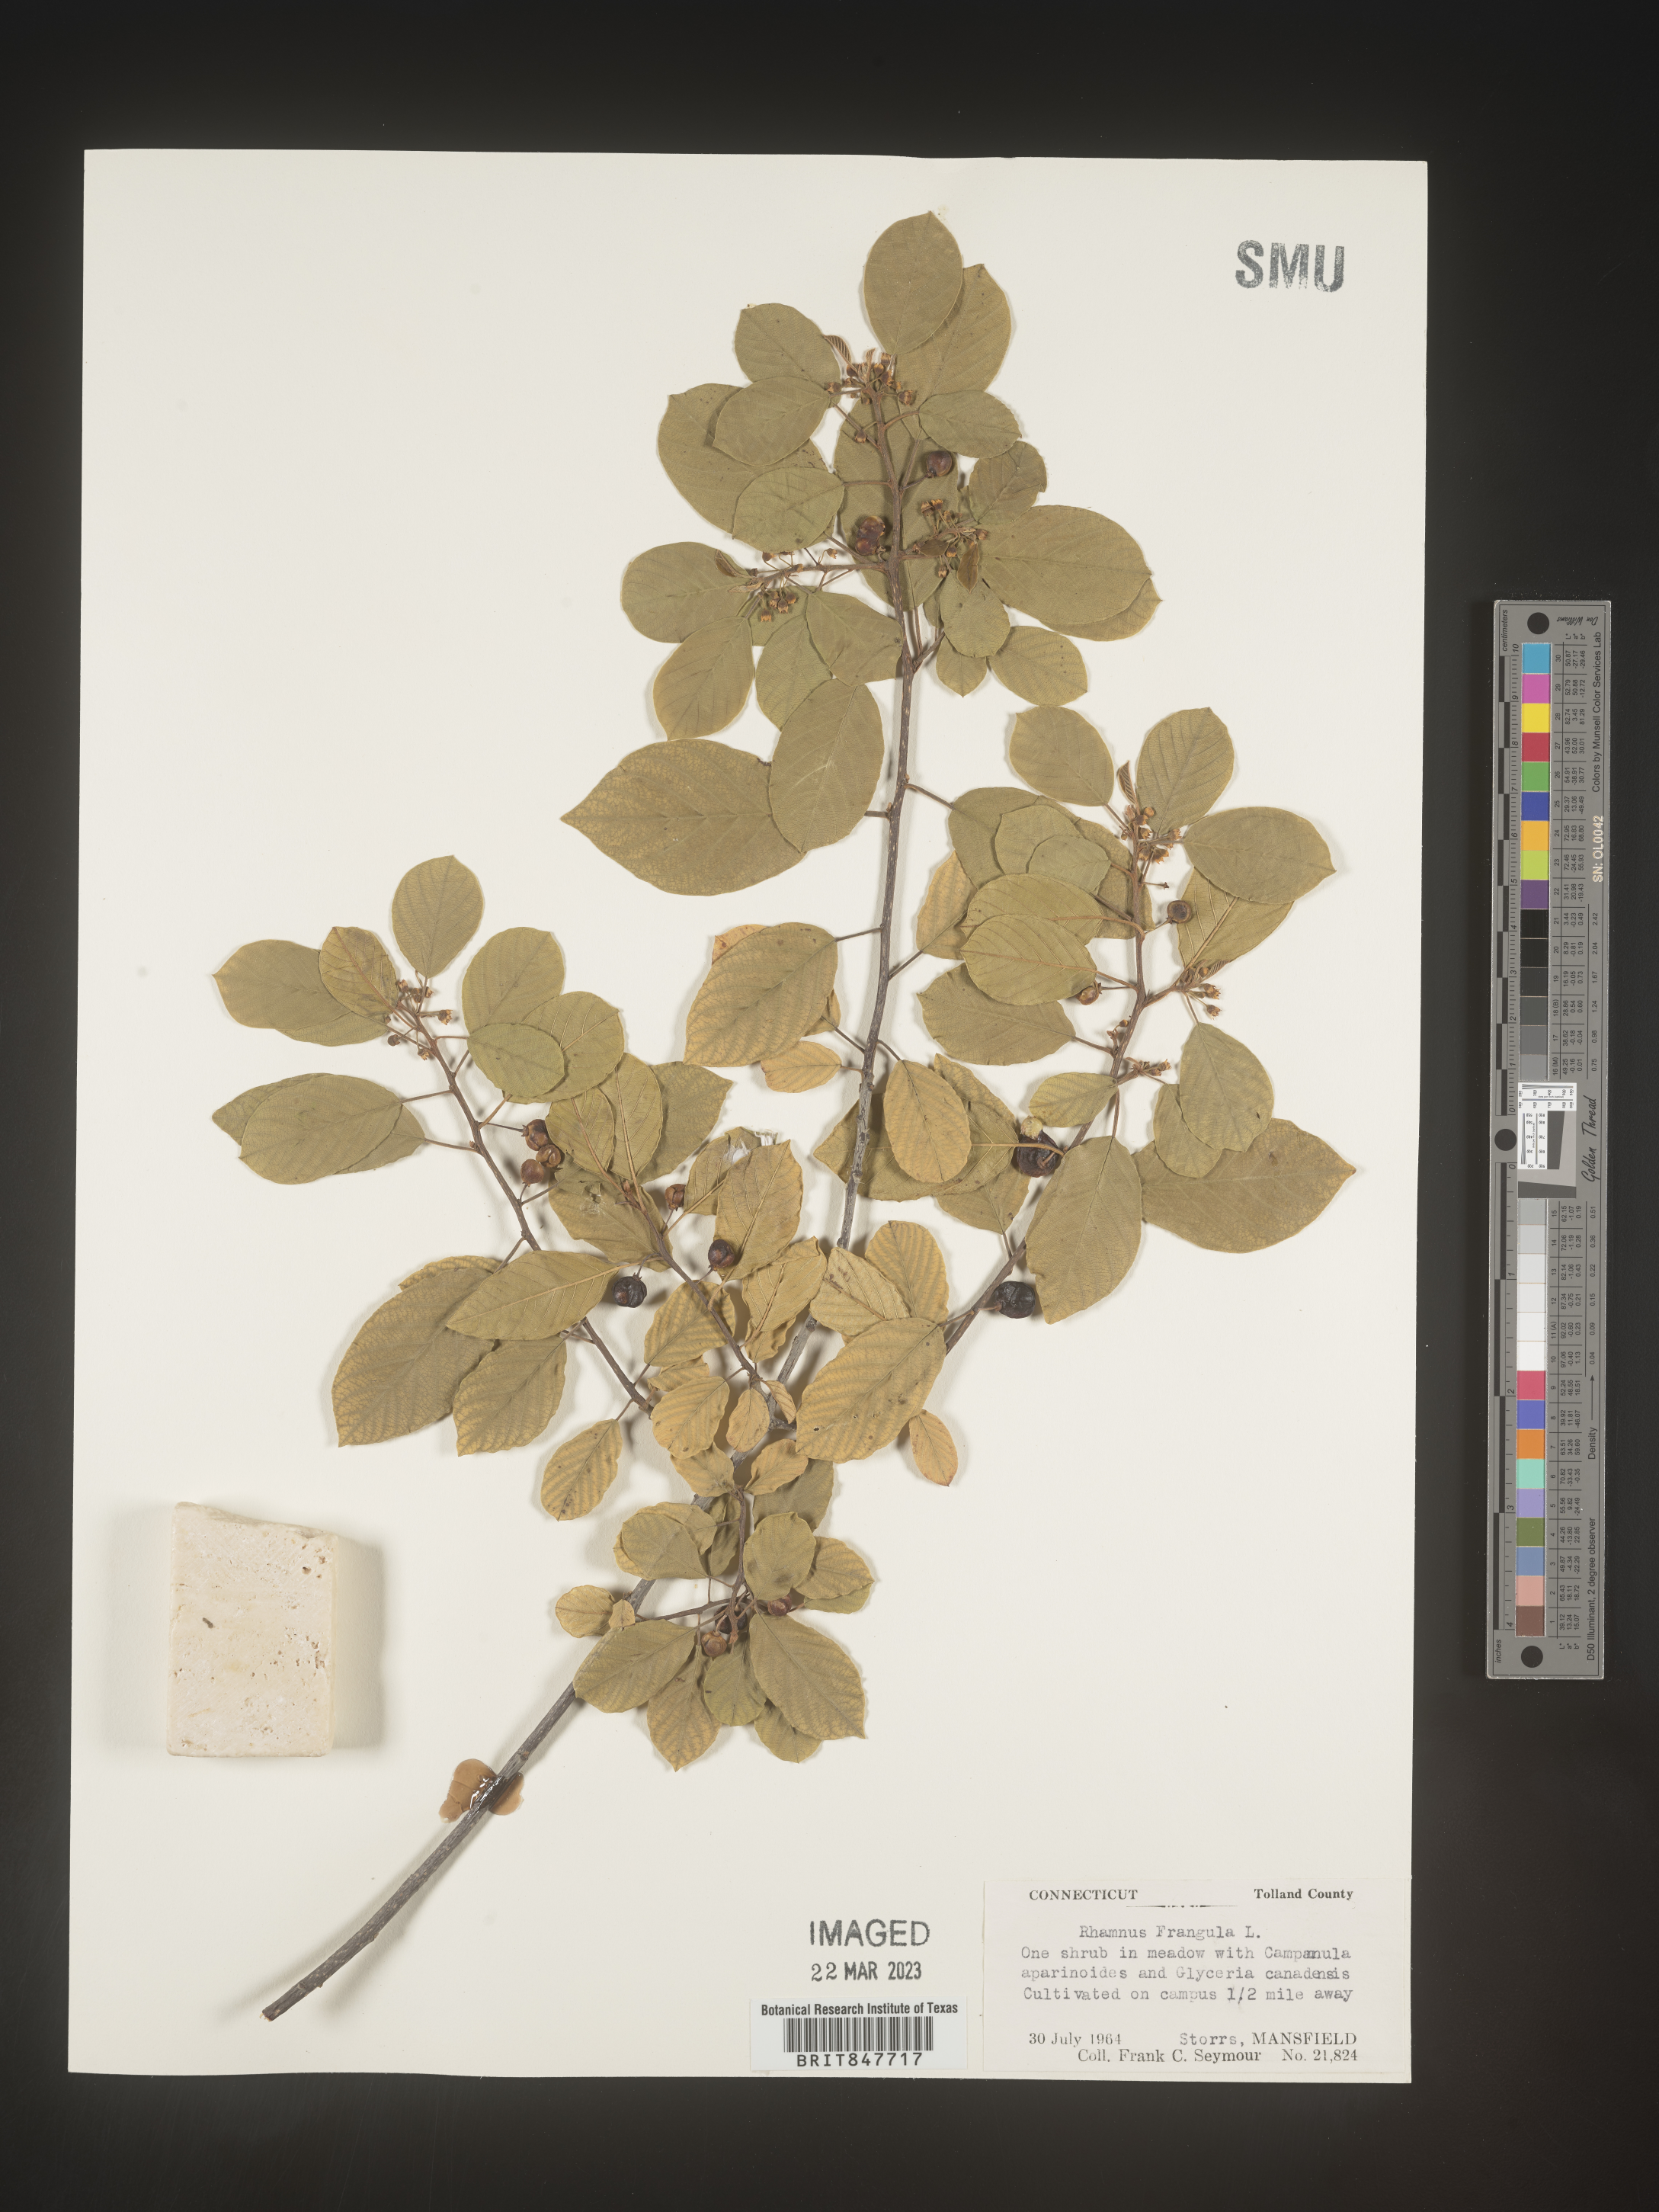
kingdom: Plantae
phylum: Tracheophyta
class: Magnoliopsida
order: Rosales
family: Rhamnaceae
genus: Frangula
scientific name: Frangula alnus
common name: Alder buckthorn
